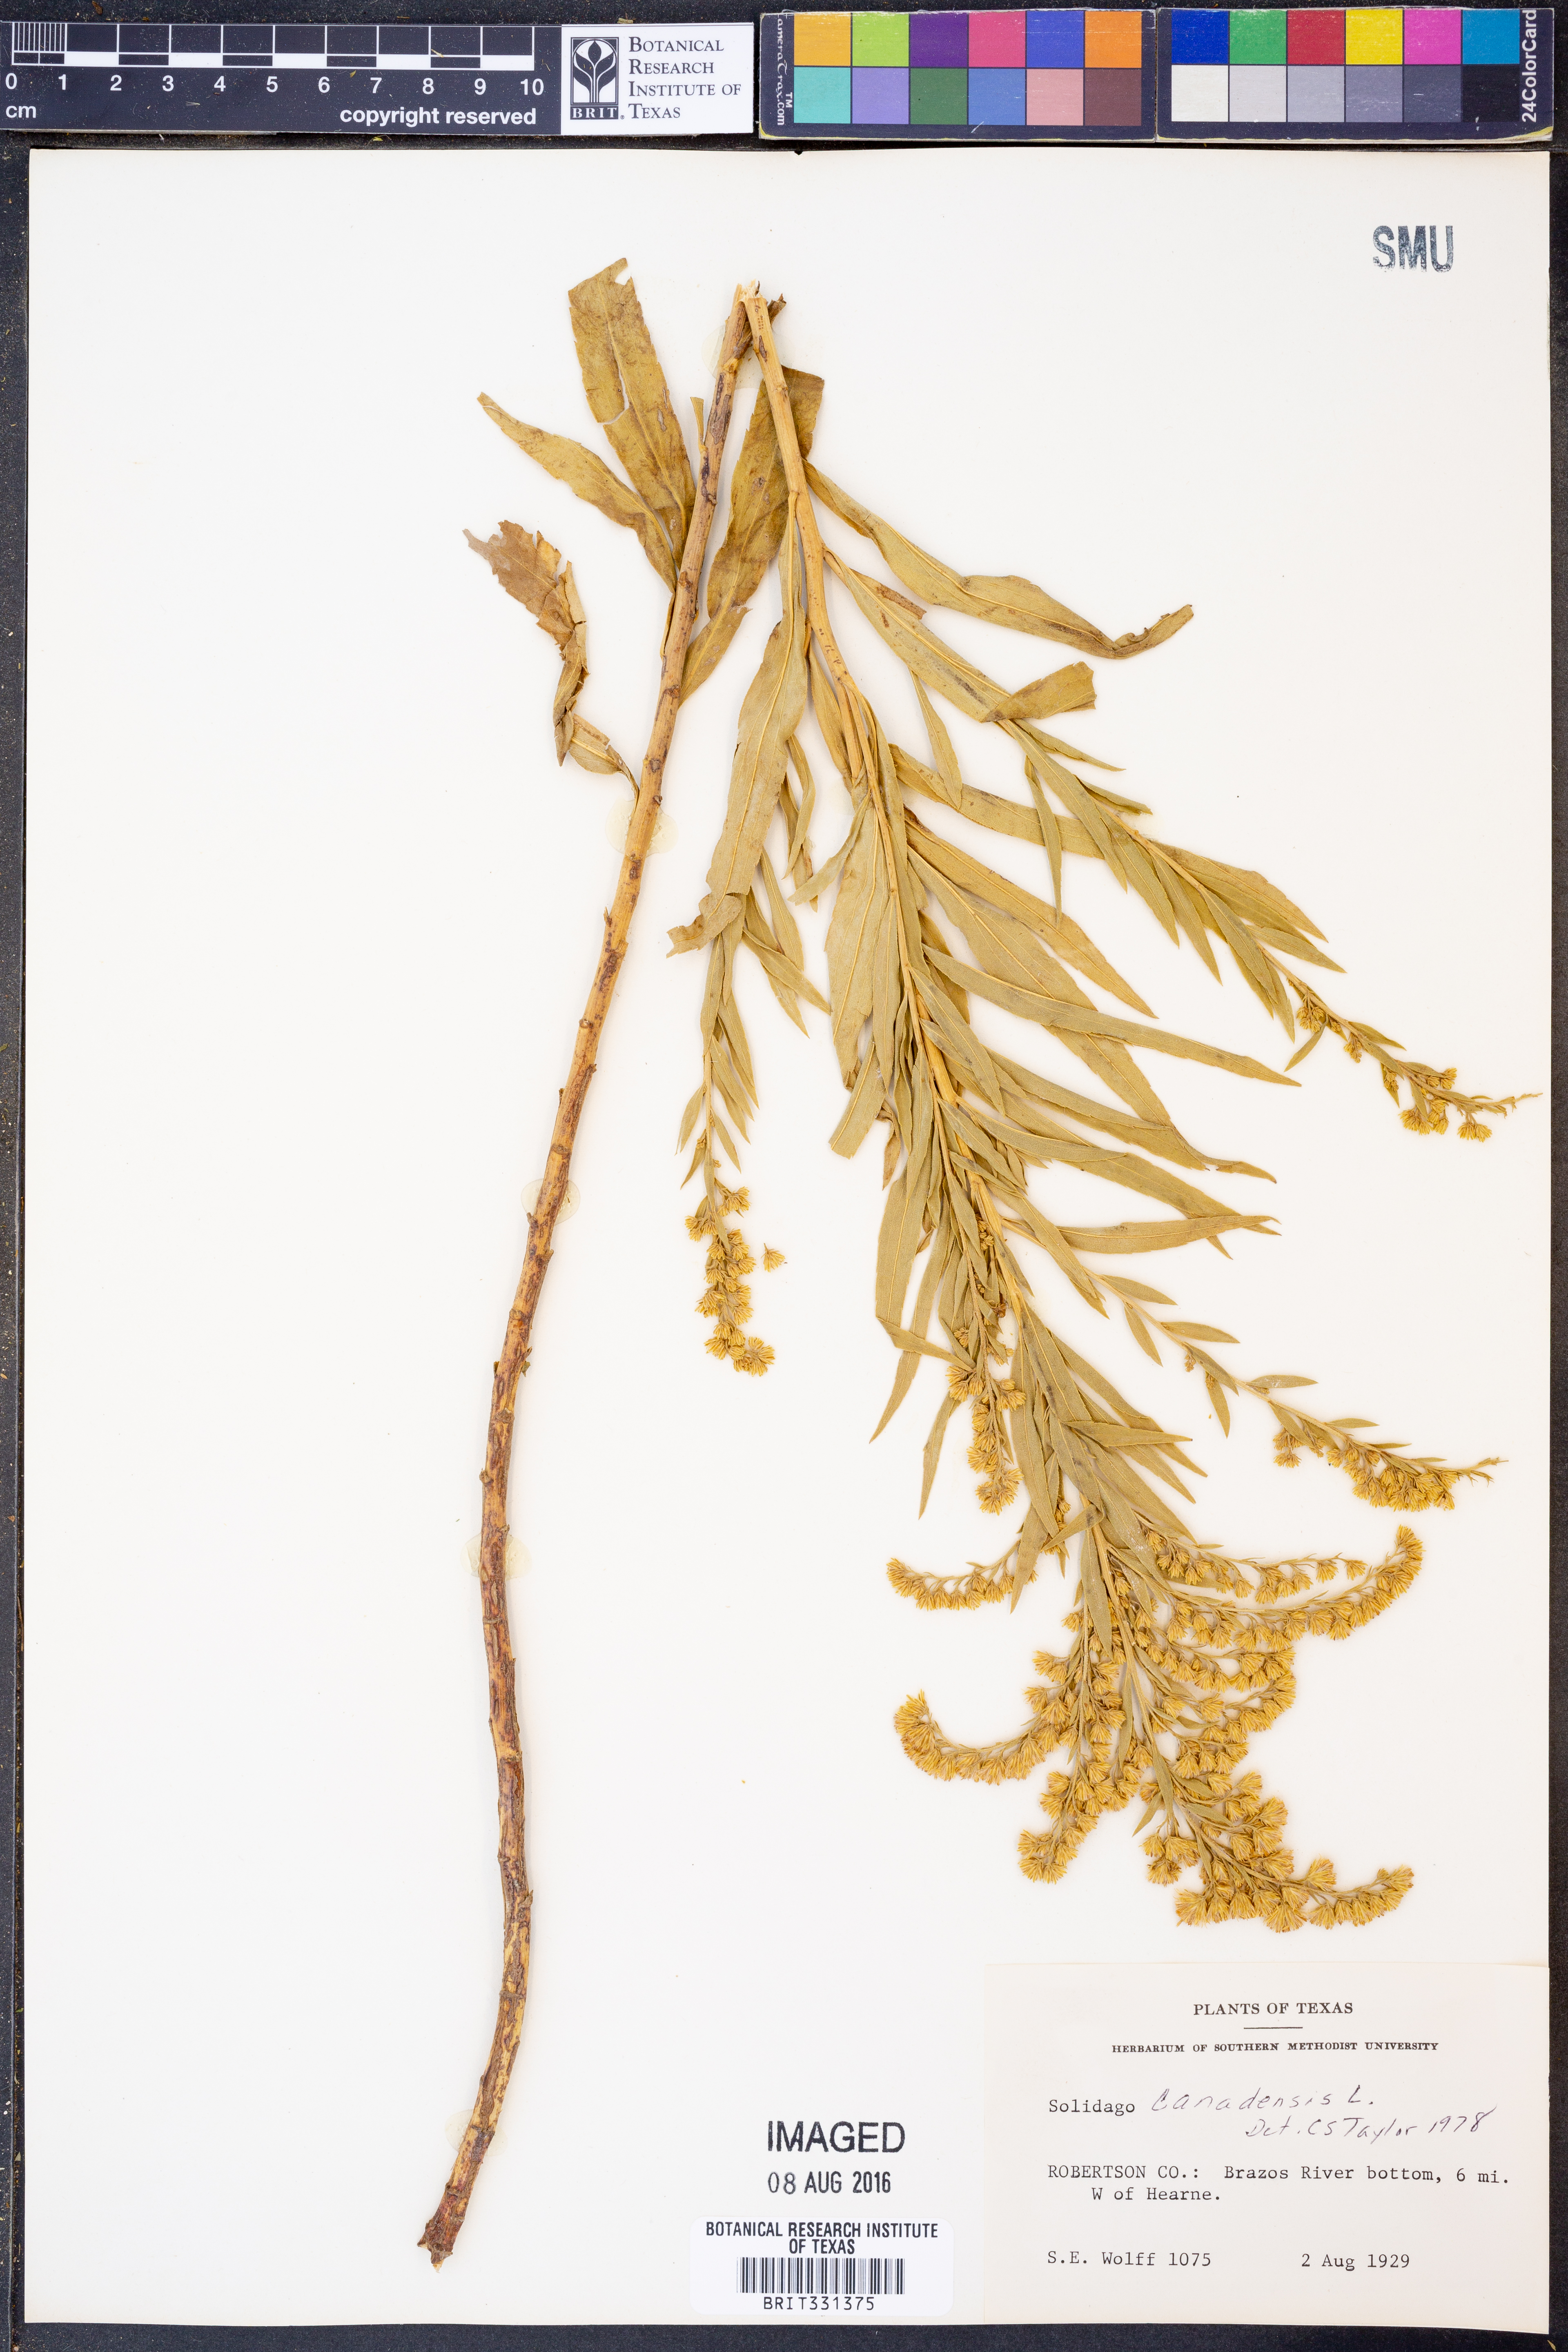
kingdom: Plantae
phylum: Tracheophyta
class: Magnoliopsida
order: Asterales
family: Asteraceae
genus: Solidago
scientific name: Solidago canadensis
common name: Canada goldenrod
